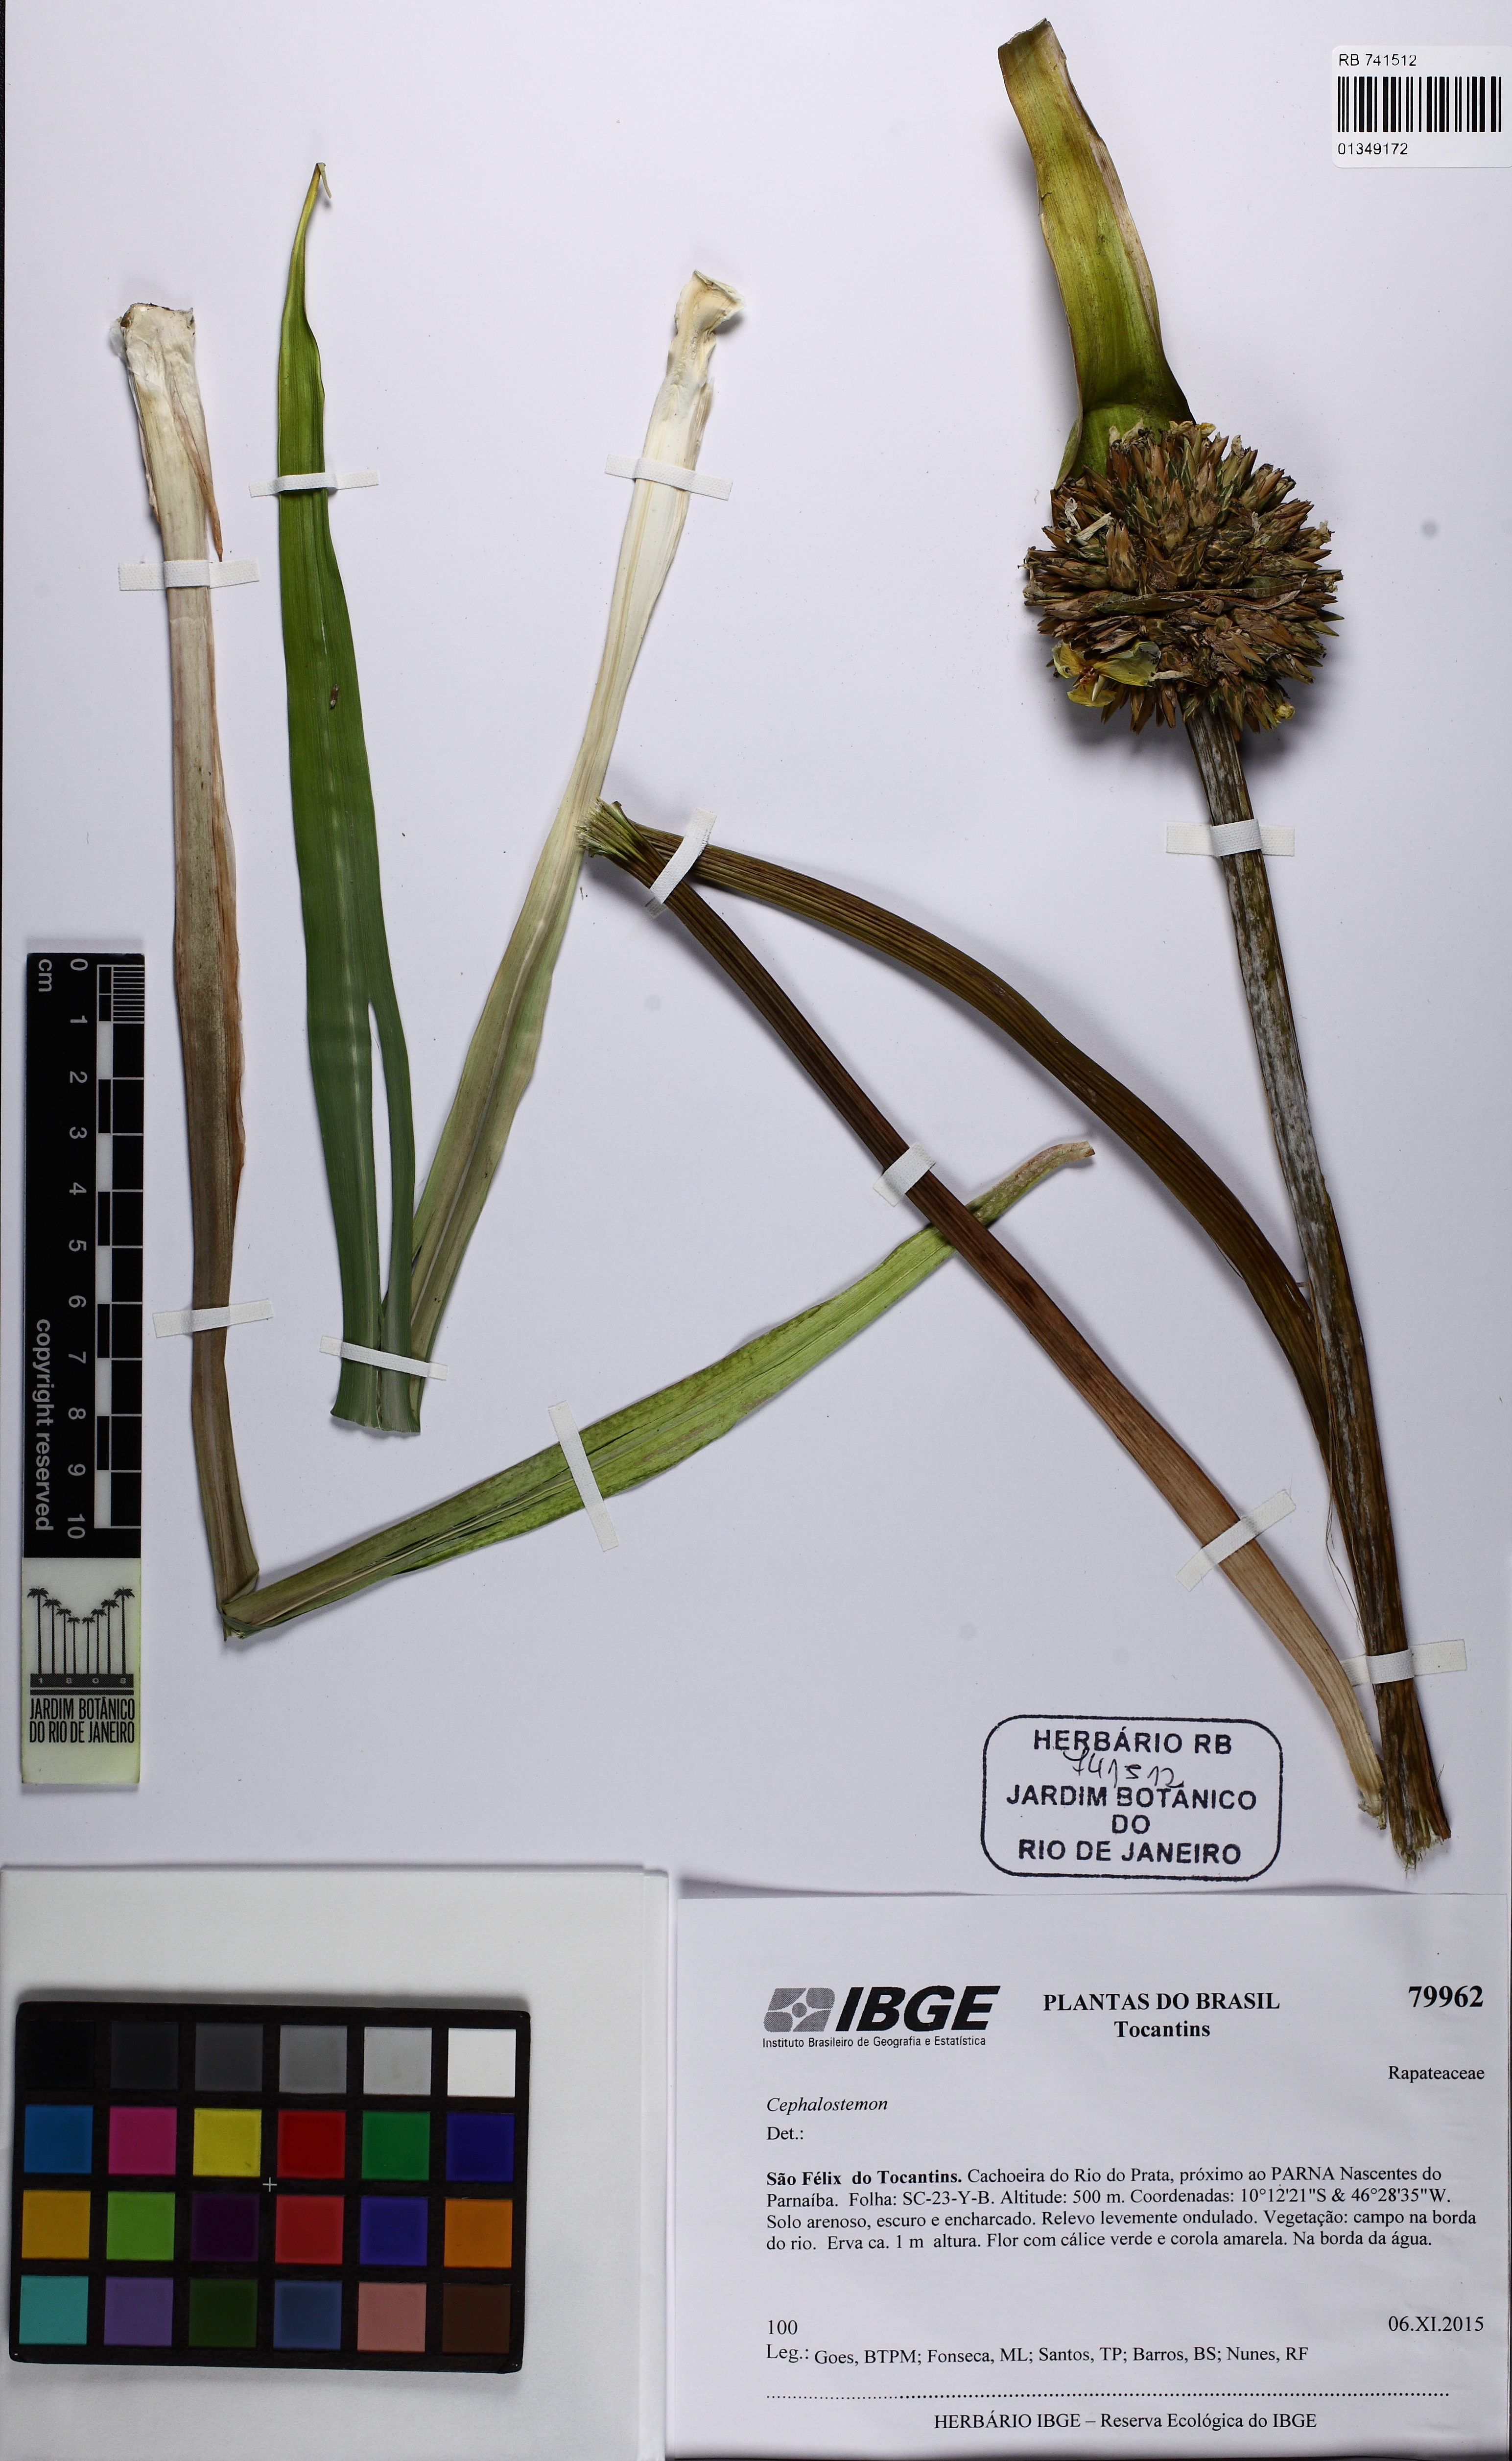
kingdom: Plantae
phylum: Tracheophyta
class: Liliopsida
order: Poales
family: Rapateaceae
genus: Cephalostemon
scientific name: Cephalostemon
